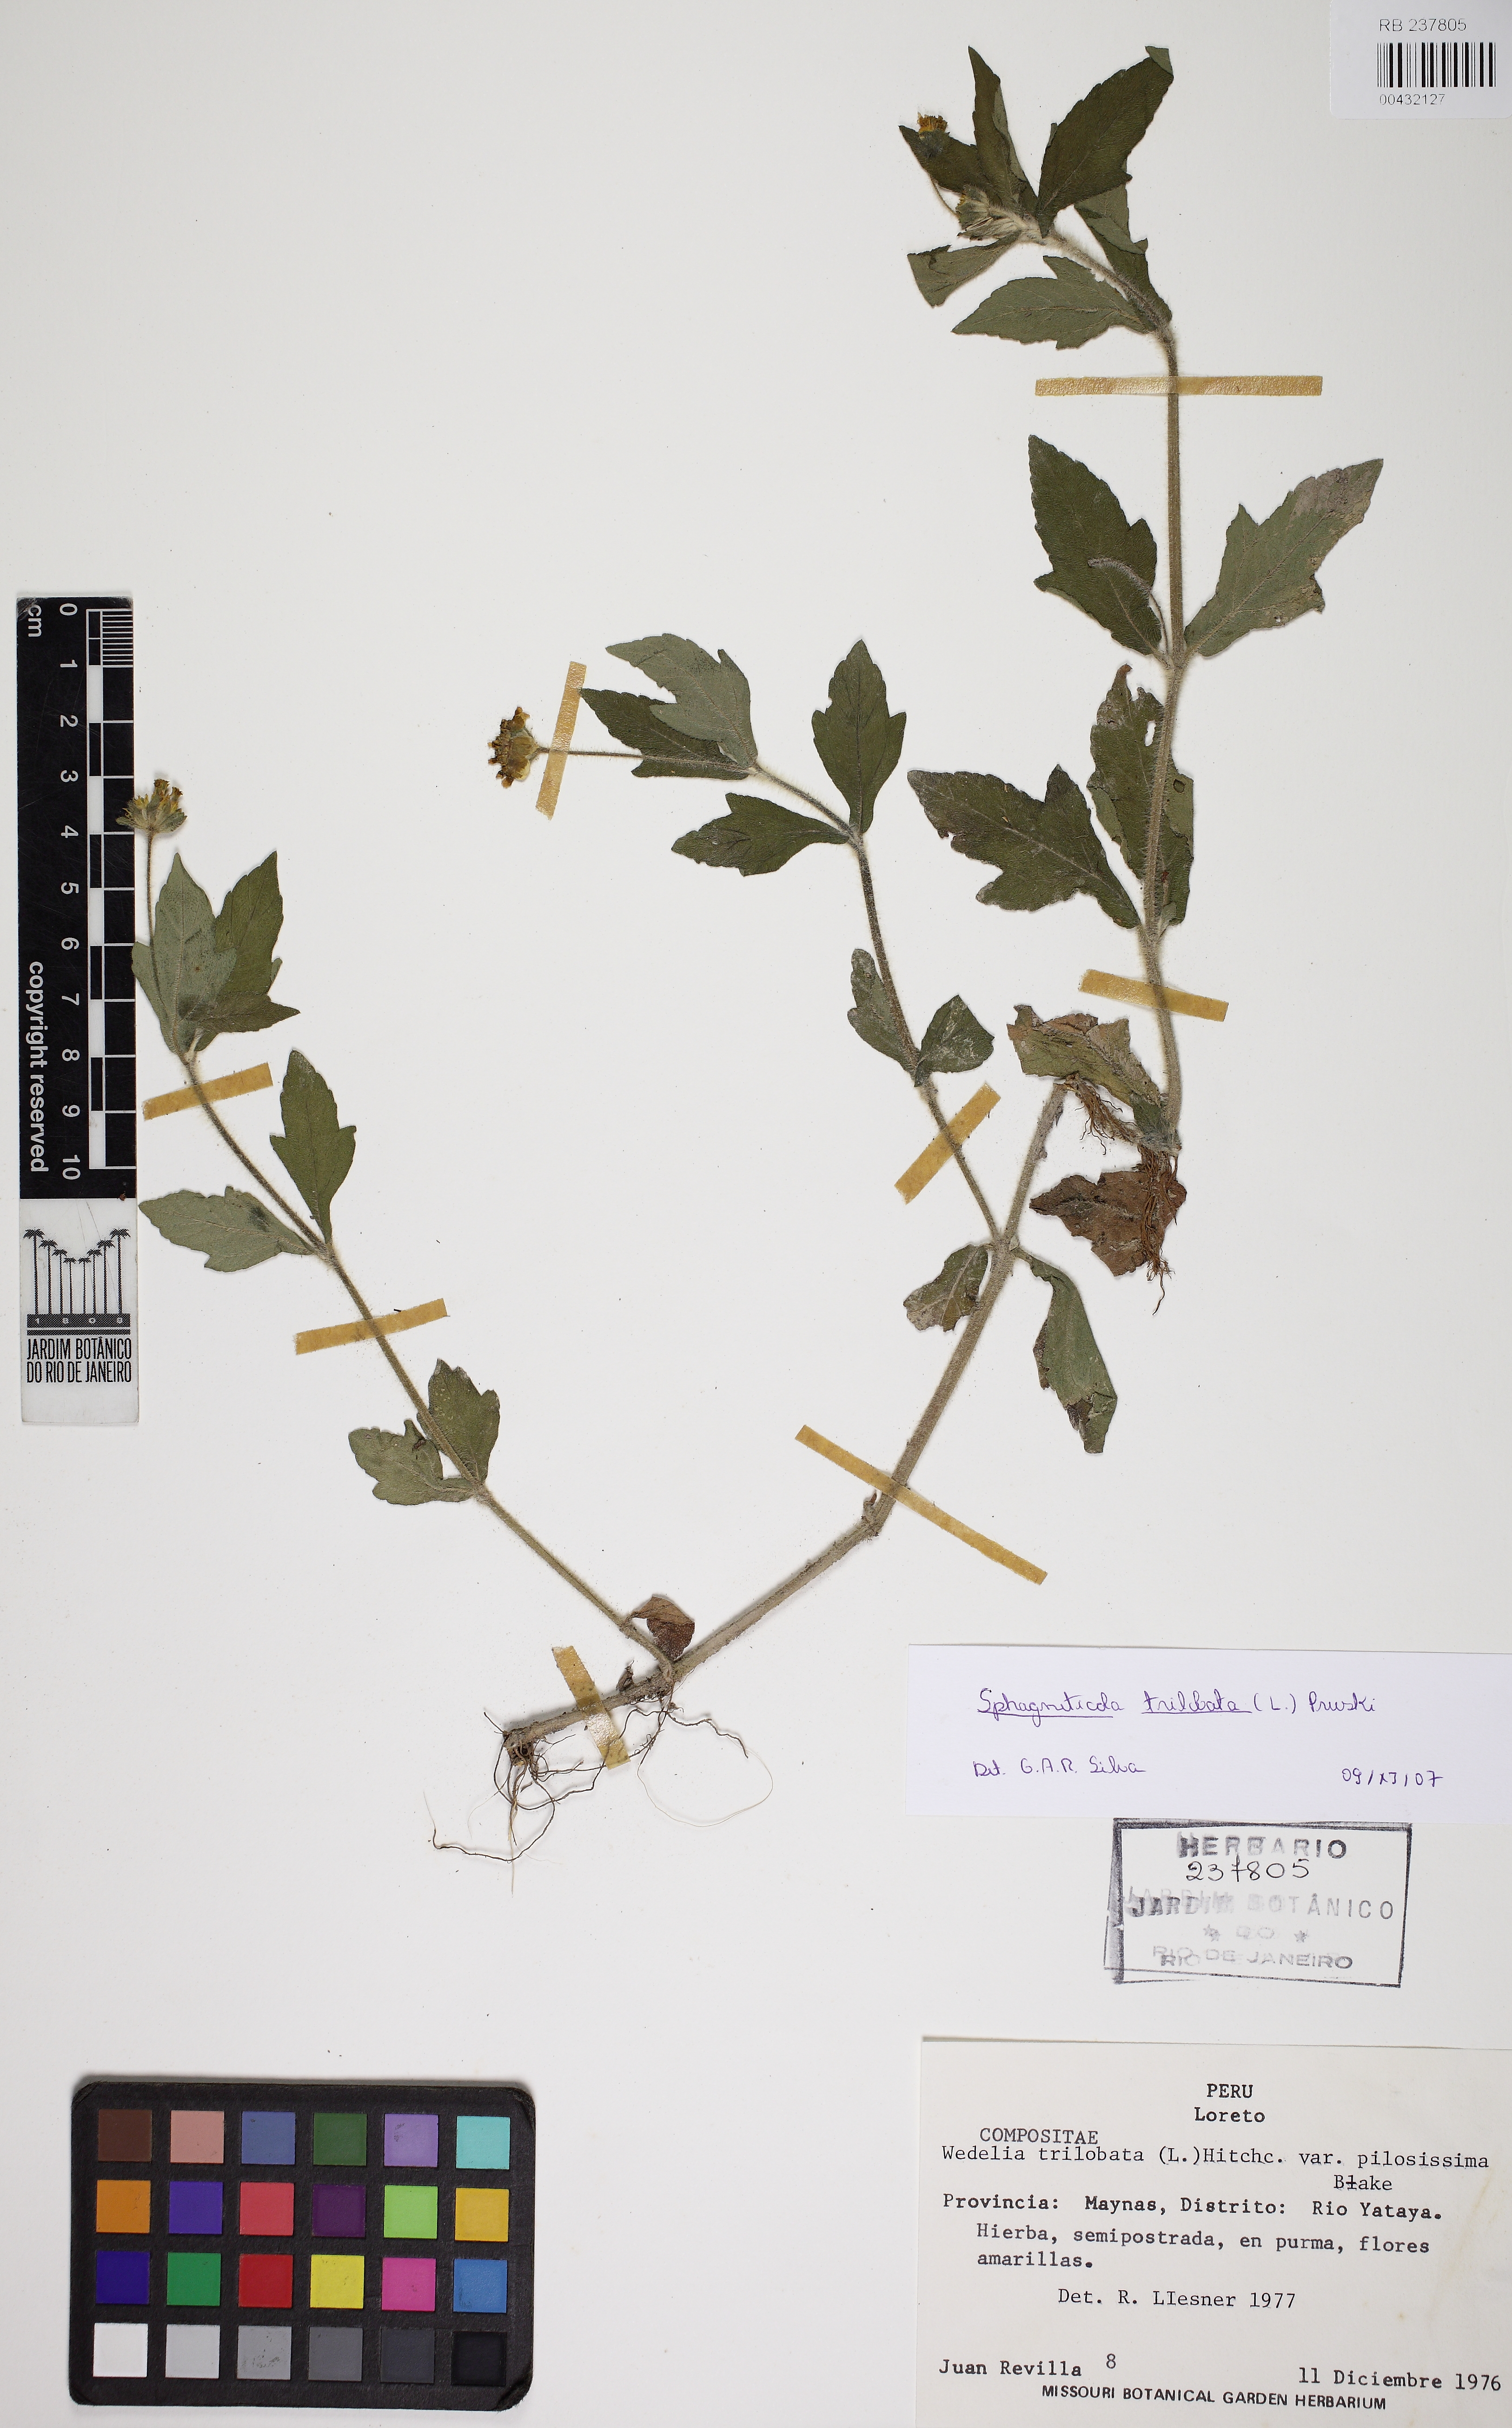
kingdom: Plantae
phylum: Tracheophyta
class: Magnoliopsida
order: Asterales
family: Asteraceae
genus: Sphagneticola
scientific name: Sphagneticola trilobata
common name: Bay biscayne creeping-oxeye
